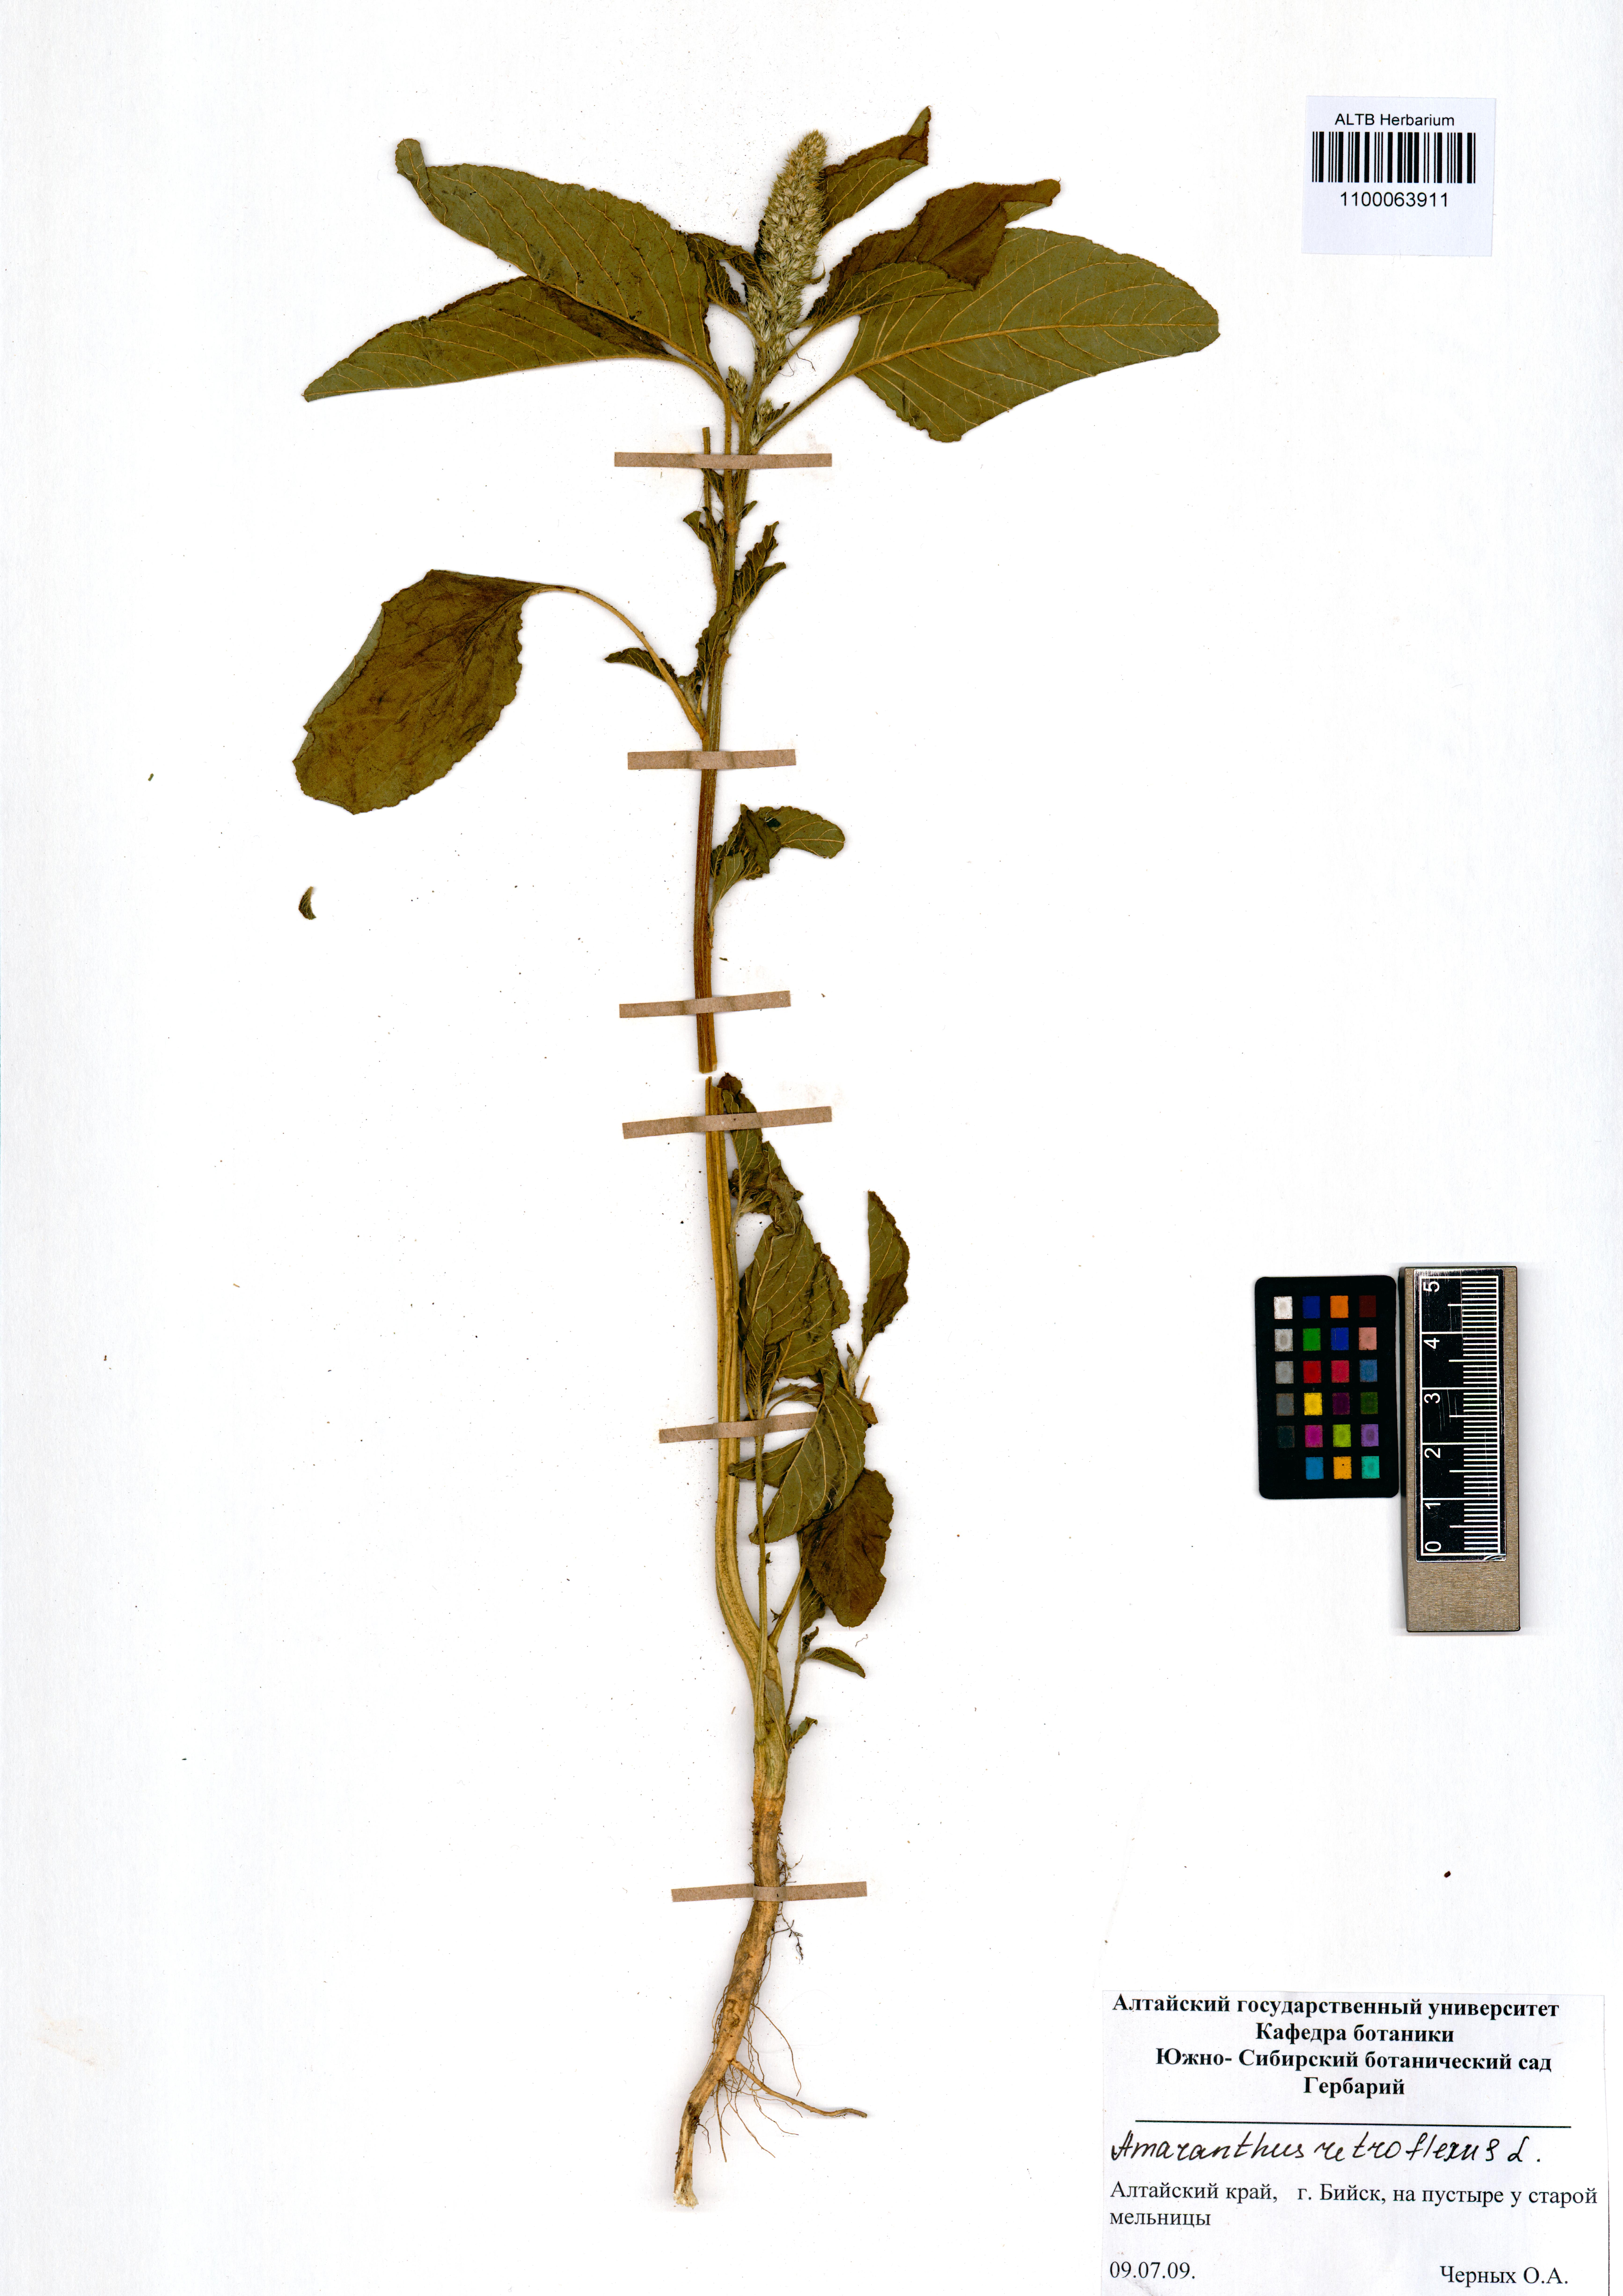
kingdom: Plantae
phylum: Tracheophyta
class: Magnoliopsida
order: Caryophyllales
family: Amaranthaceae
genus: Amaranthus
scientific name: Amaranthus retroflexus
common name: Redroot amaranth
